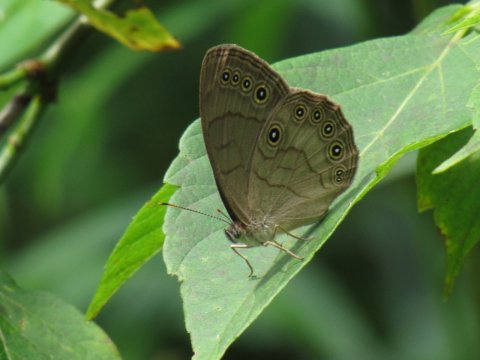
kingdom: Animalia
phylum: Arthropoda
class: Insecta
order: Lepidoptera
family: Nymphalidae
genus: Lethe
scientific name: Lethe eurydice
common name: Appalachian Eyed Brown
